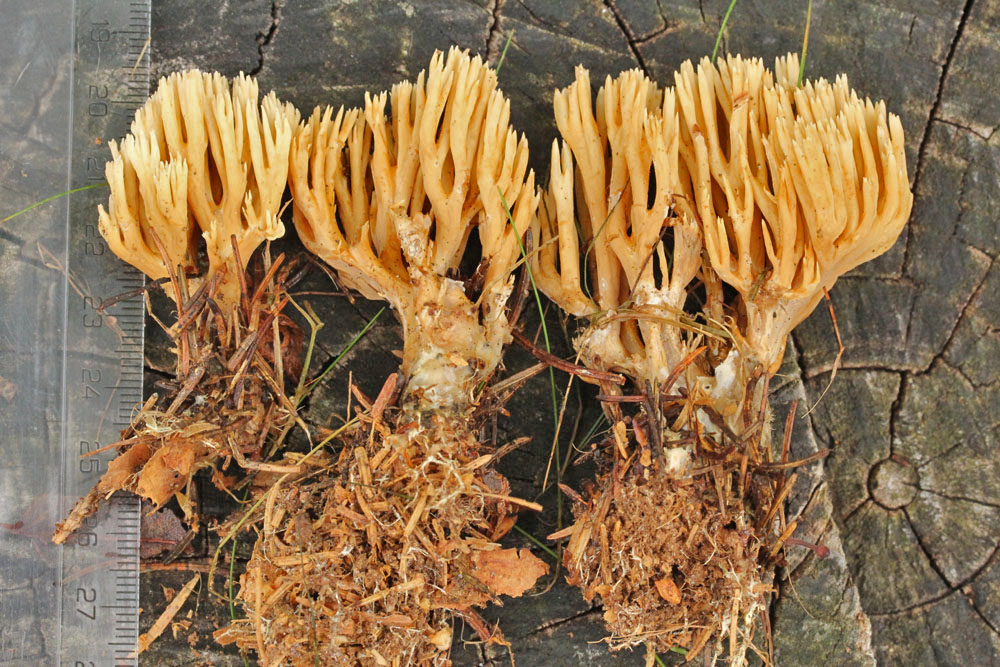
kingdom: Fungi
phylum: Basidiomycota
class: Agaricomycetes
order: Gomphales
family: Gomphaceae
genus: Phaeoclavulina
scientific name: Phaeoclavulina eumorpha
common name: gran-koralsvamp
